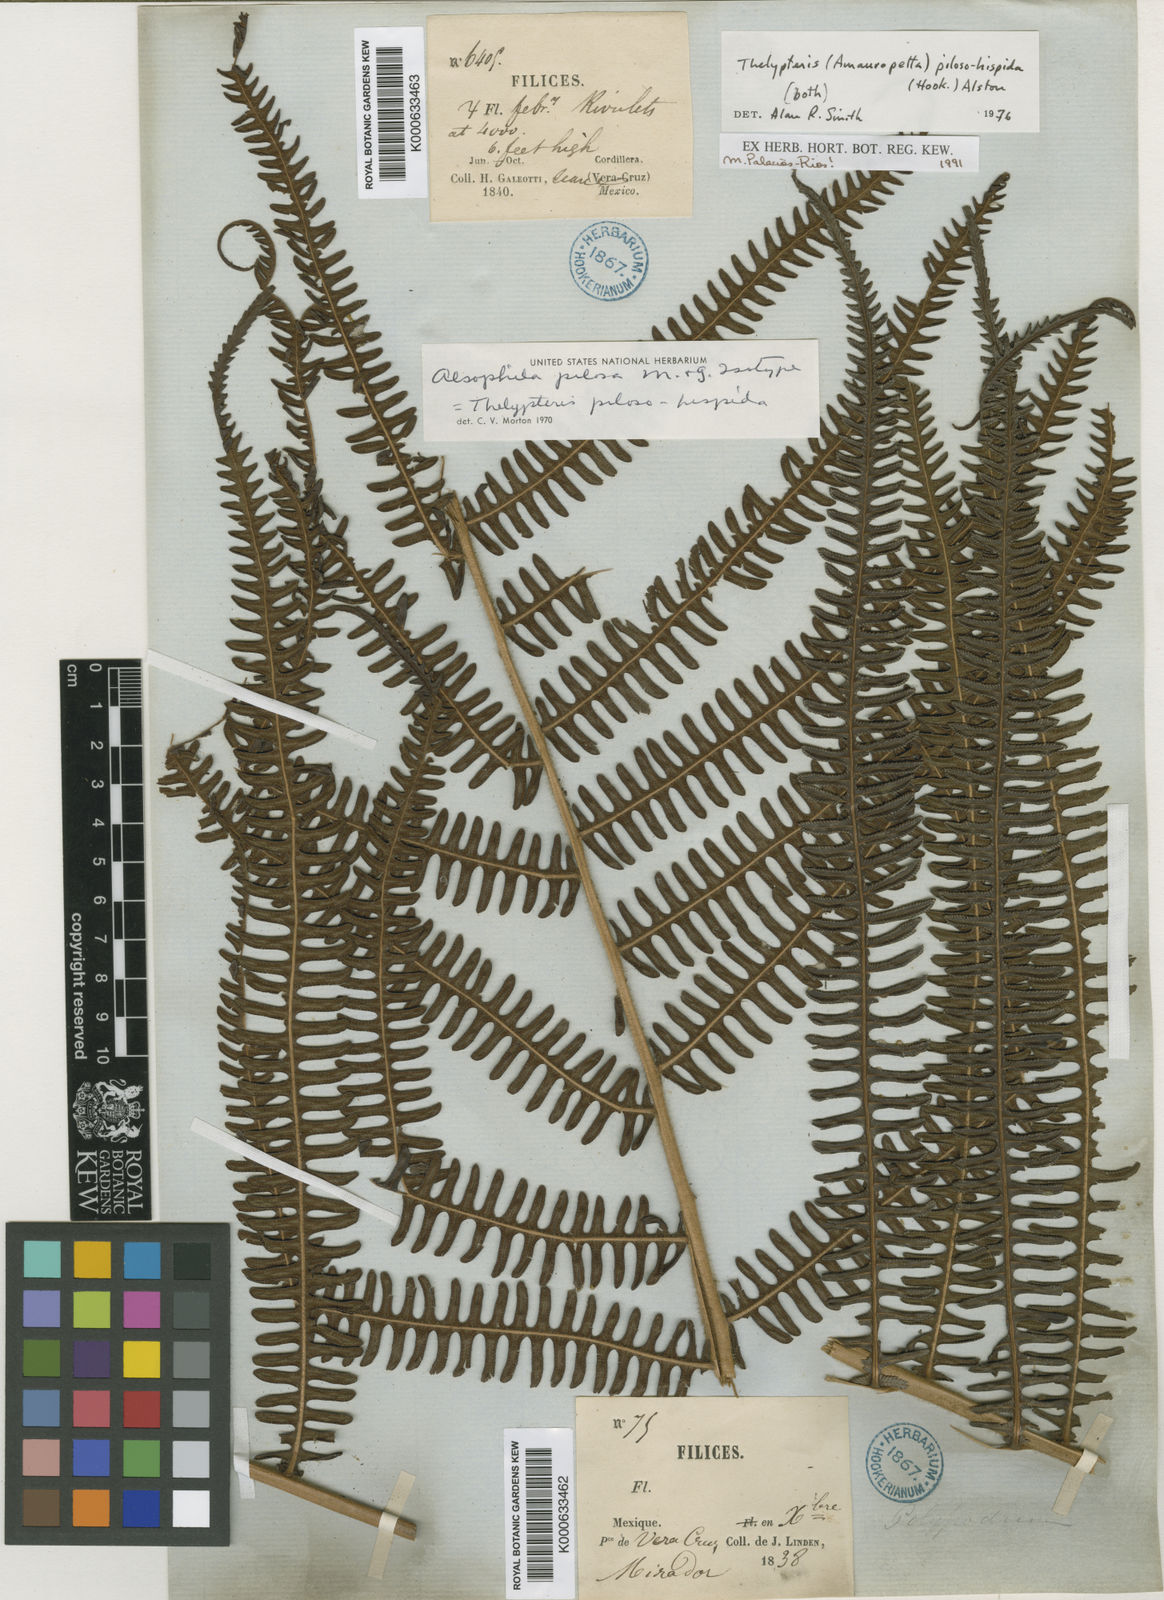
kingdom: Plantae
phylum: Tracheophyta
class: Polypodiopsida
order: Polypodiales
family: Thelypteridaceae
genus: Amauropelta
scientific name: Amauropelta pilosohispida
